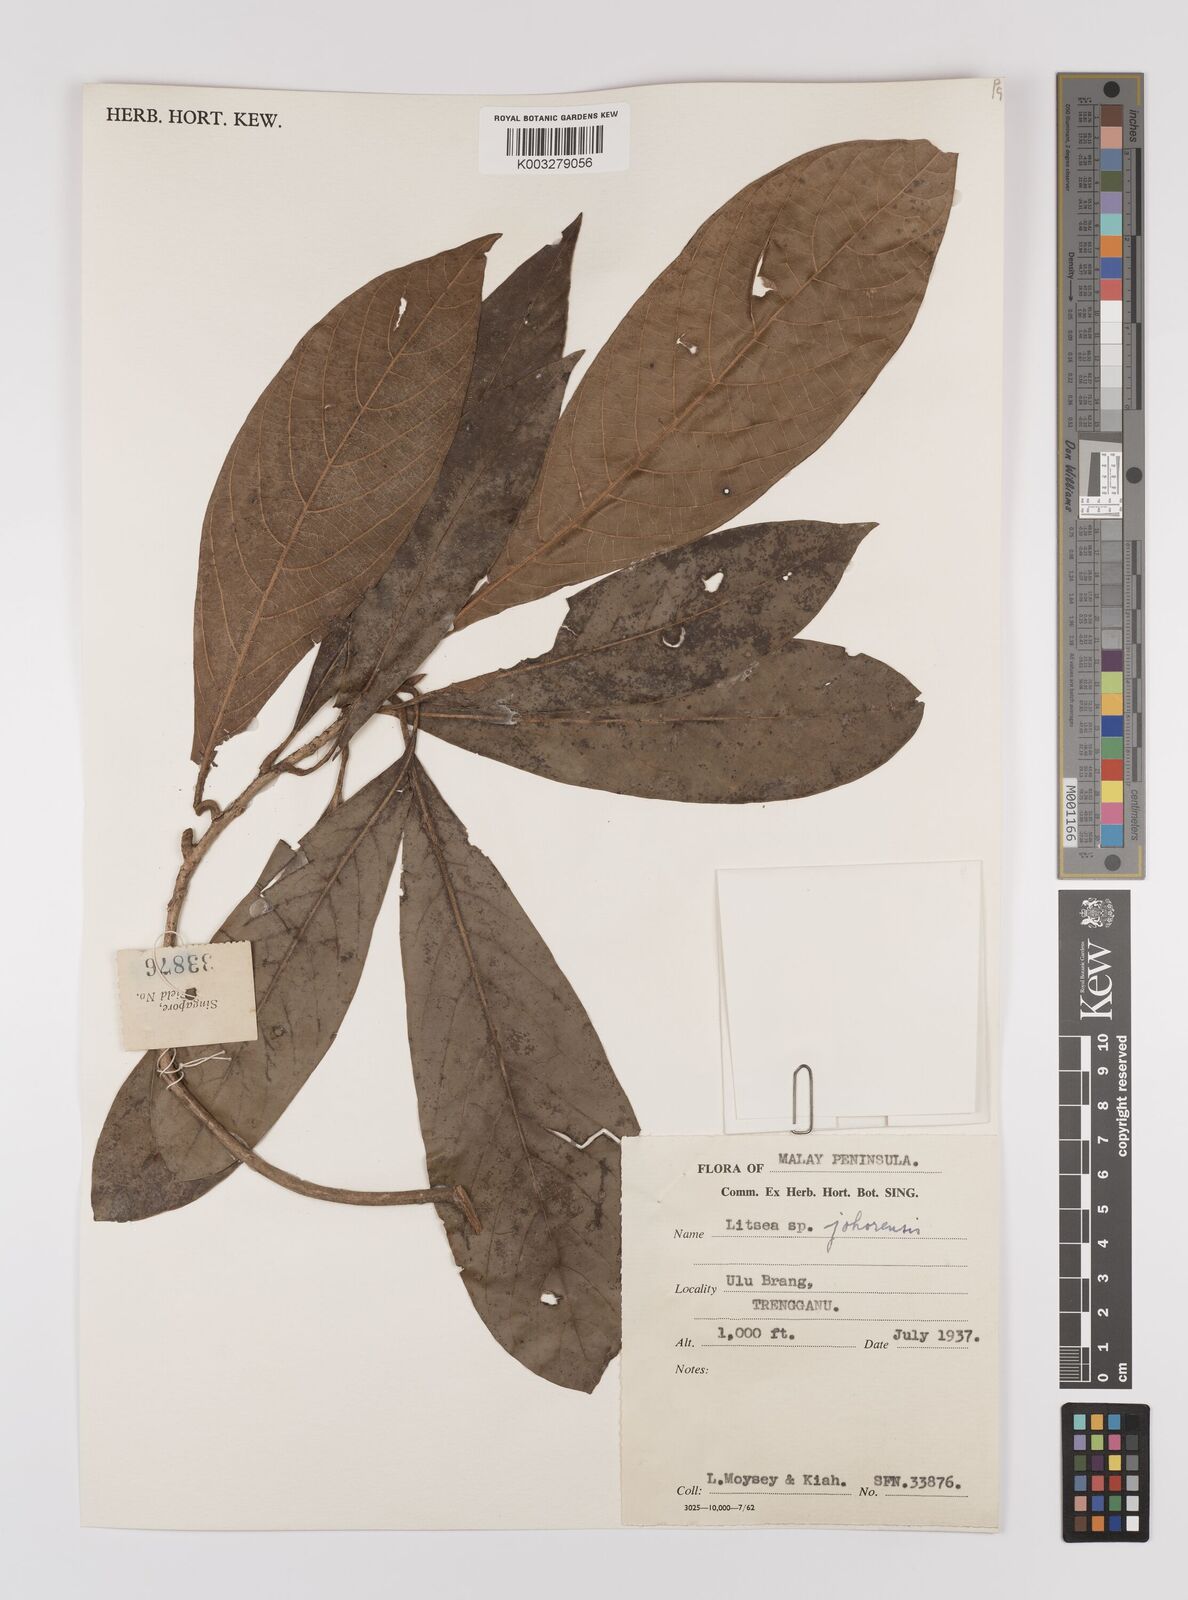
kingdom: Plantae
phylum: Tracheophyta
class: Magnoliopsida
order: Laurales
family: Lauraceae
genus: Litsea
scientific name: Litsea johorensis
